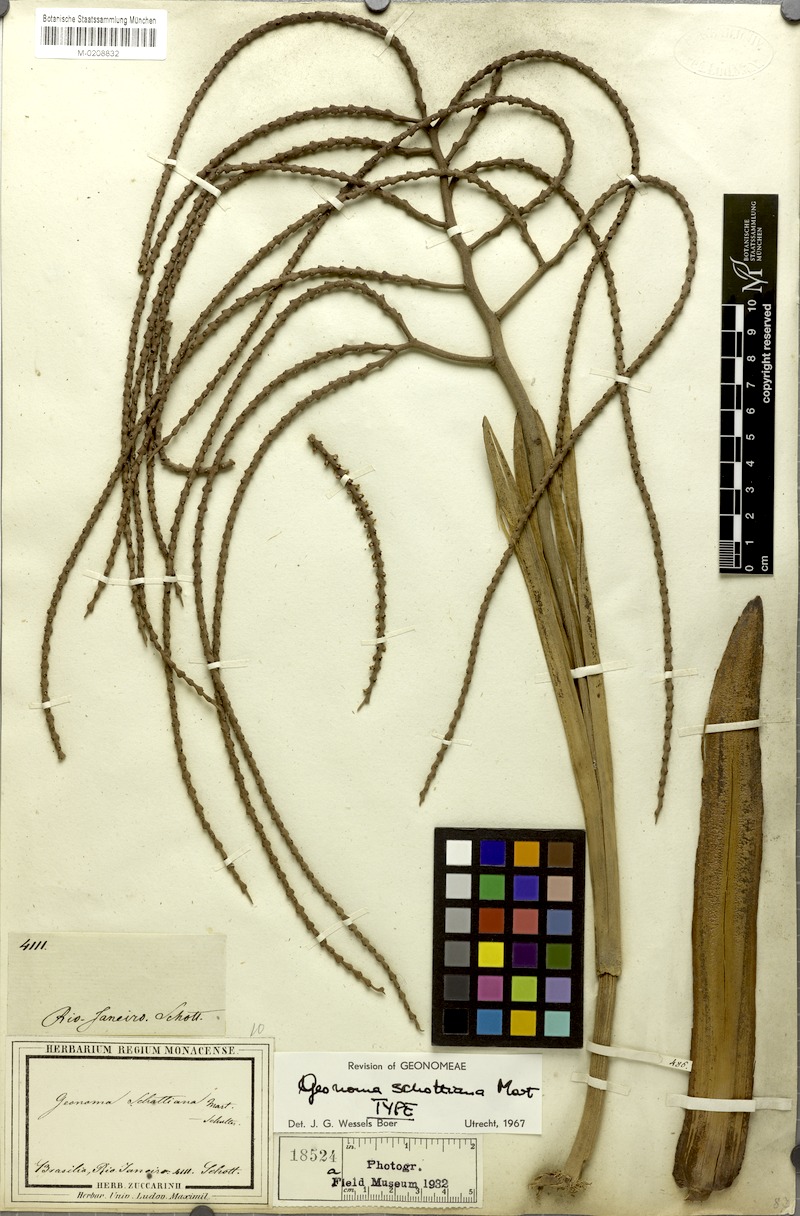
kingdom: Plantae
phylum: Tracheophyta
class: Liliopsida
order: Arecales
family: Arecaceae
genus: Geonoma
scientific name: Geonoma schottiana
